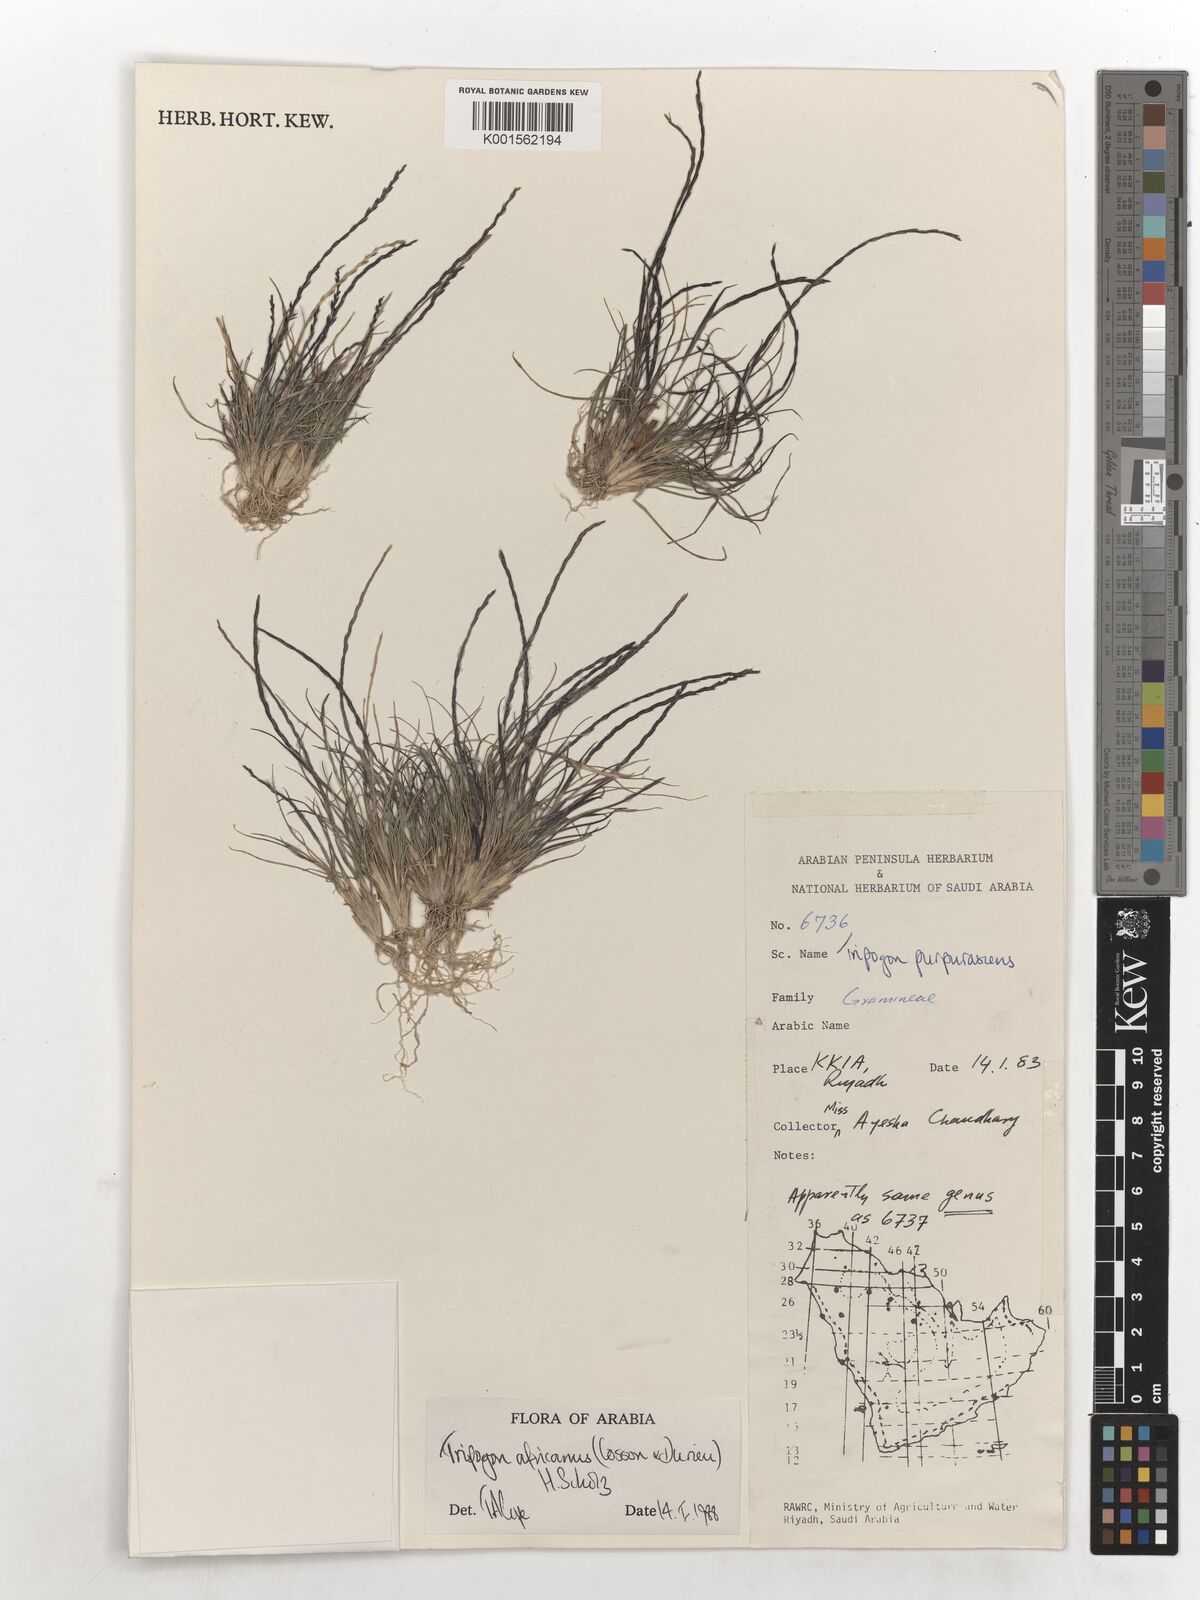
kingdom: Plantae
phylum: Tracheophyta
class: Liliopsida
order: Poales
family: Poaceae
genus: Tripogon
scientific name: Tripogon africanus
